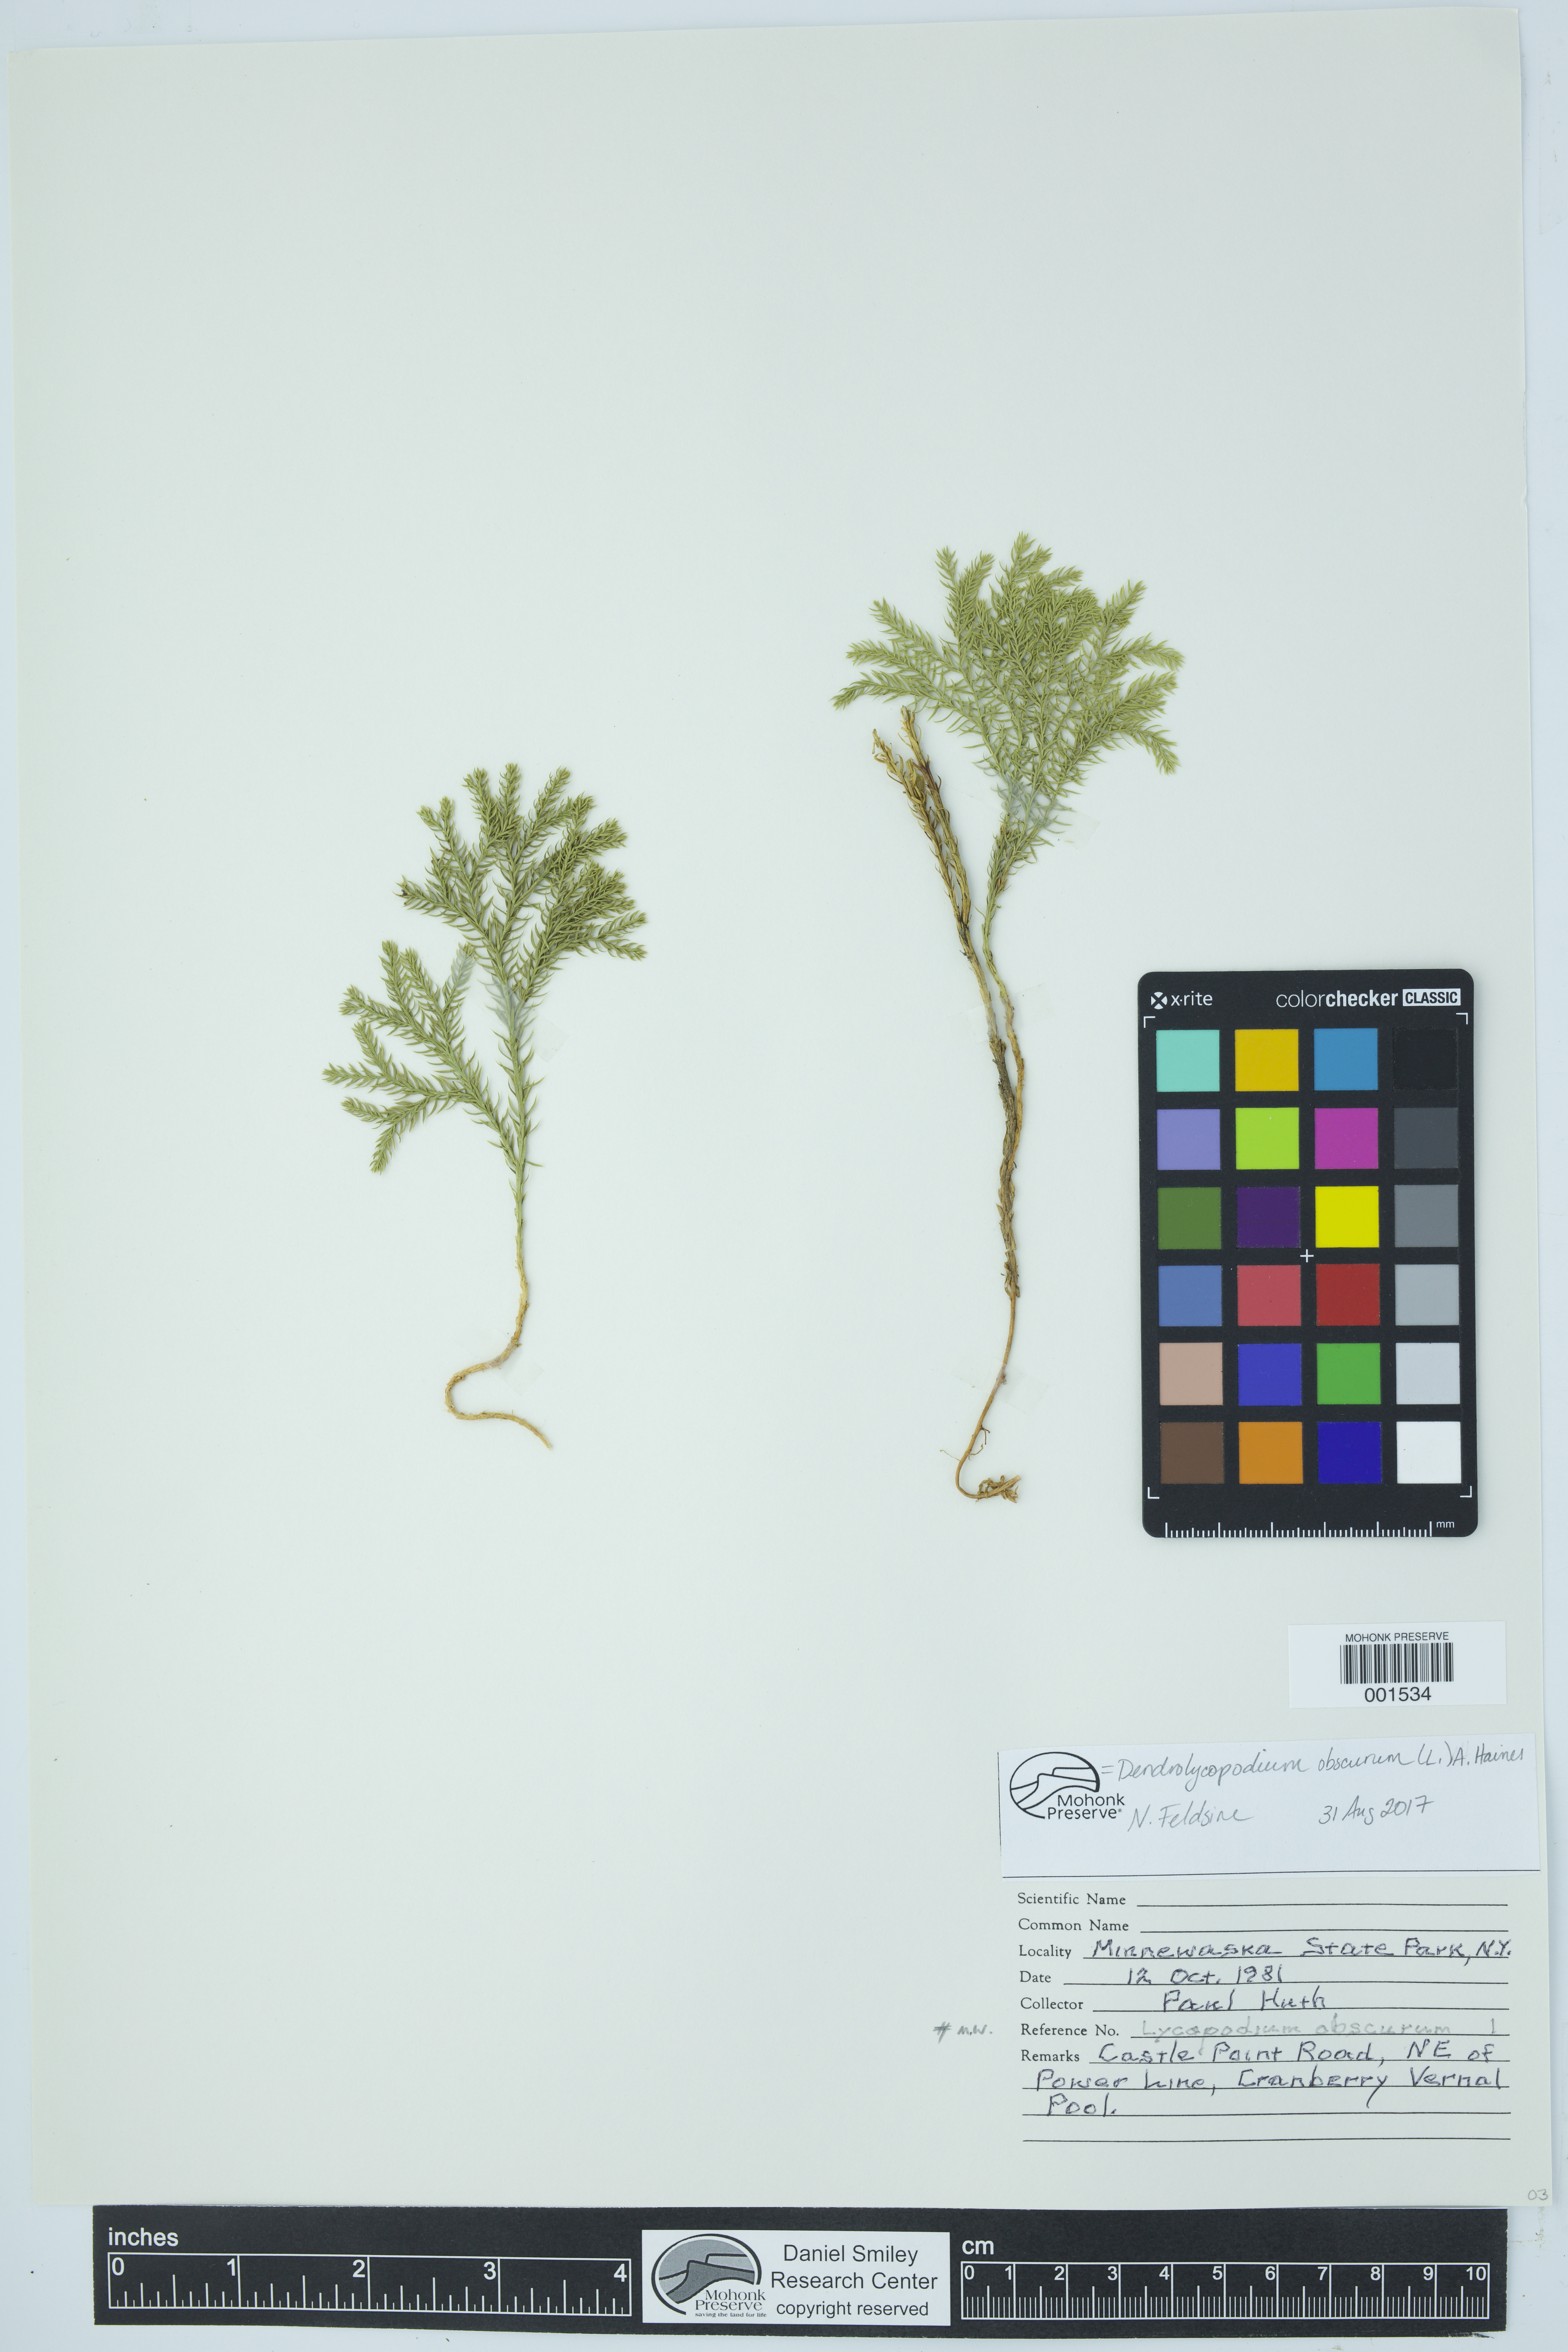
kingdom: Plantae
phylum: Tracheophyta
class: Lycopodiopsida
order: Lycopodiales
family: Lycopodiaceae
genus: Dendrolycopodium
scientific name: Dendrolycopodium obscurum
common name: Common ground-pine
